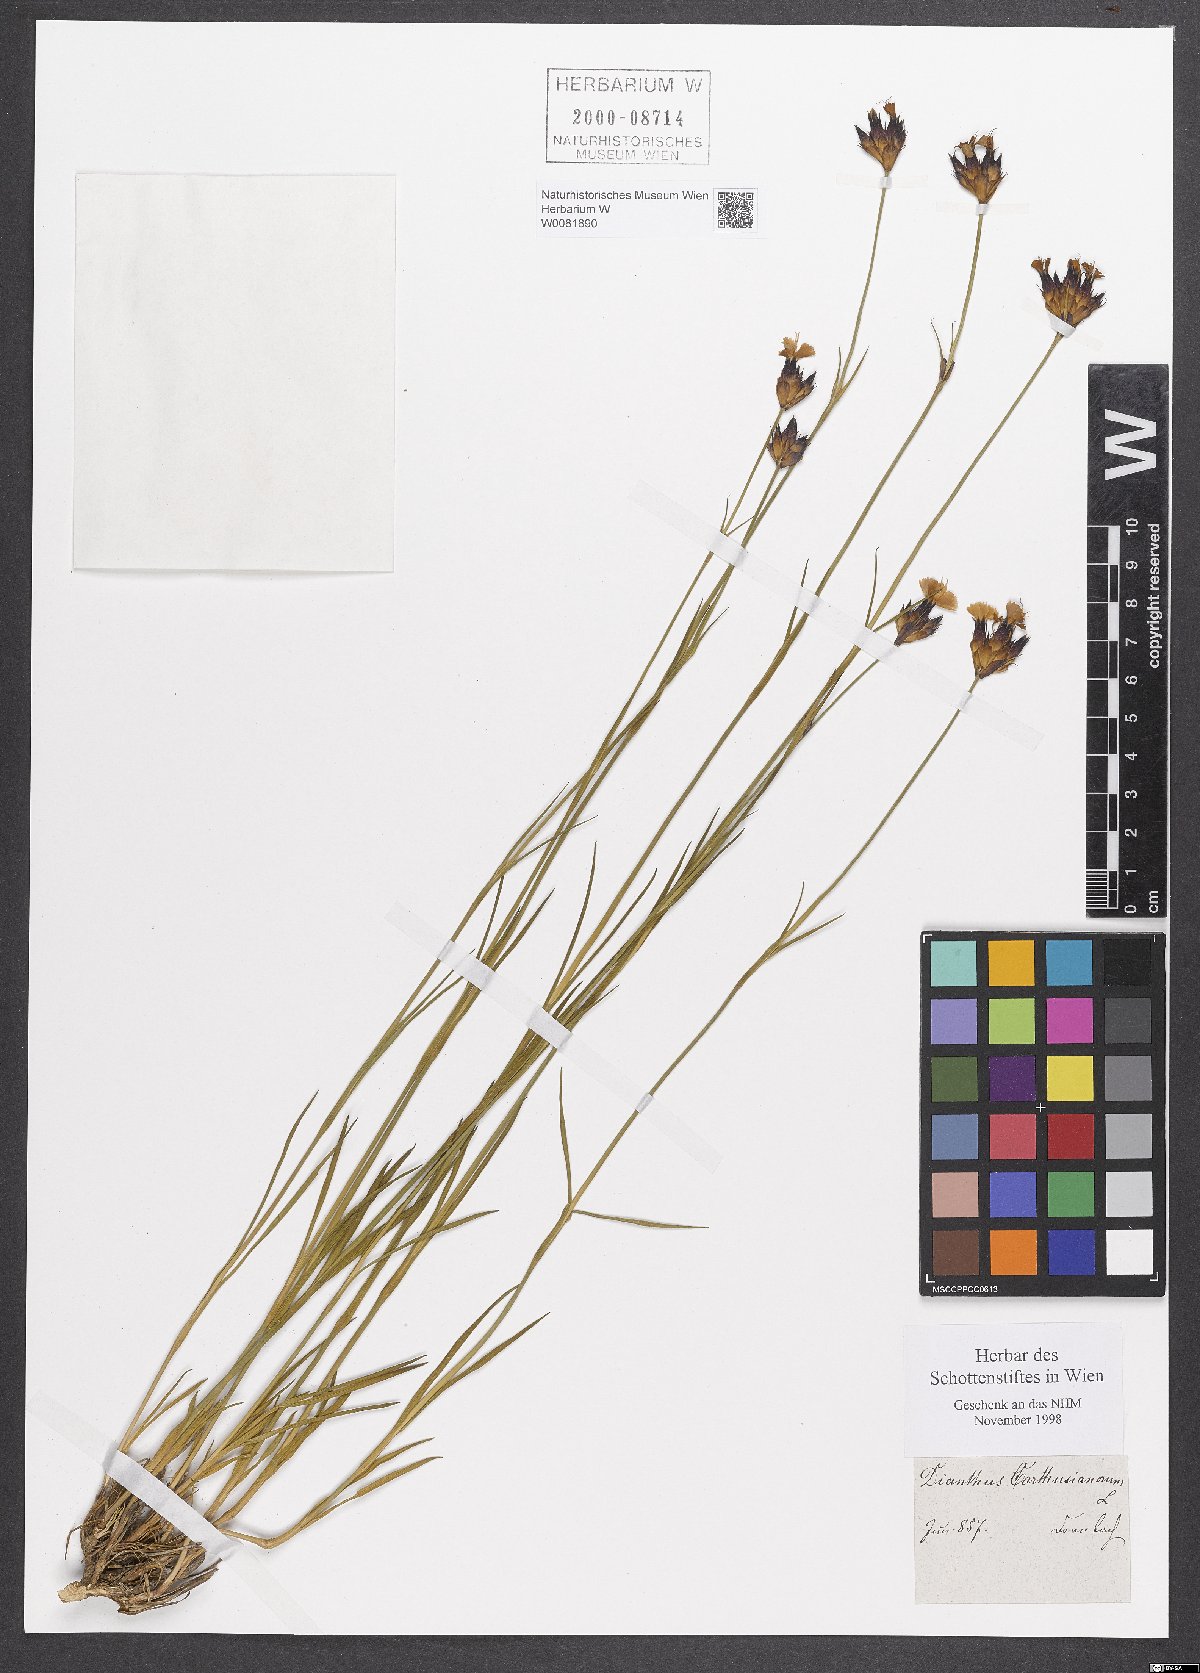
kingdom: Plantae
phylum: Tracheophyta
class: Magnoliopsida
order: Caryophyllales
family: Caryophyllaceae
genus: Dianthus
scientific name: Dianthus carthusianorum
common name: Carthusian pink
